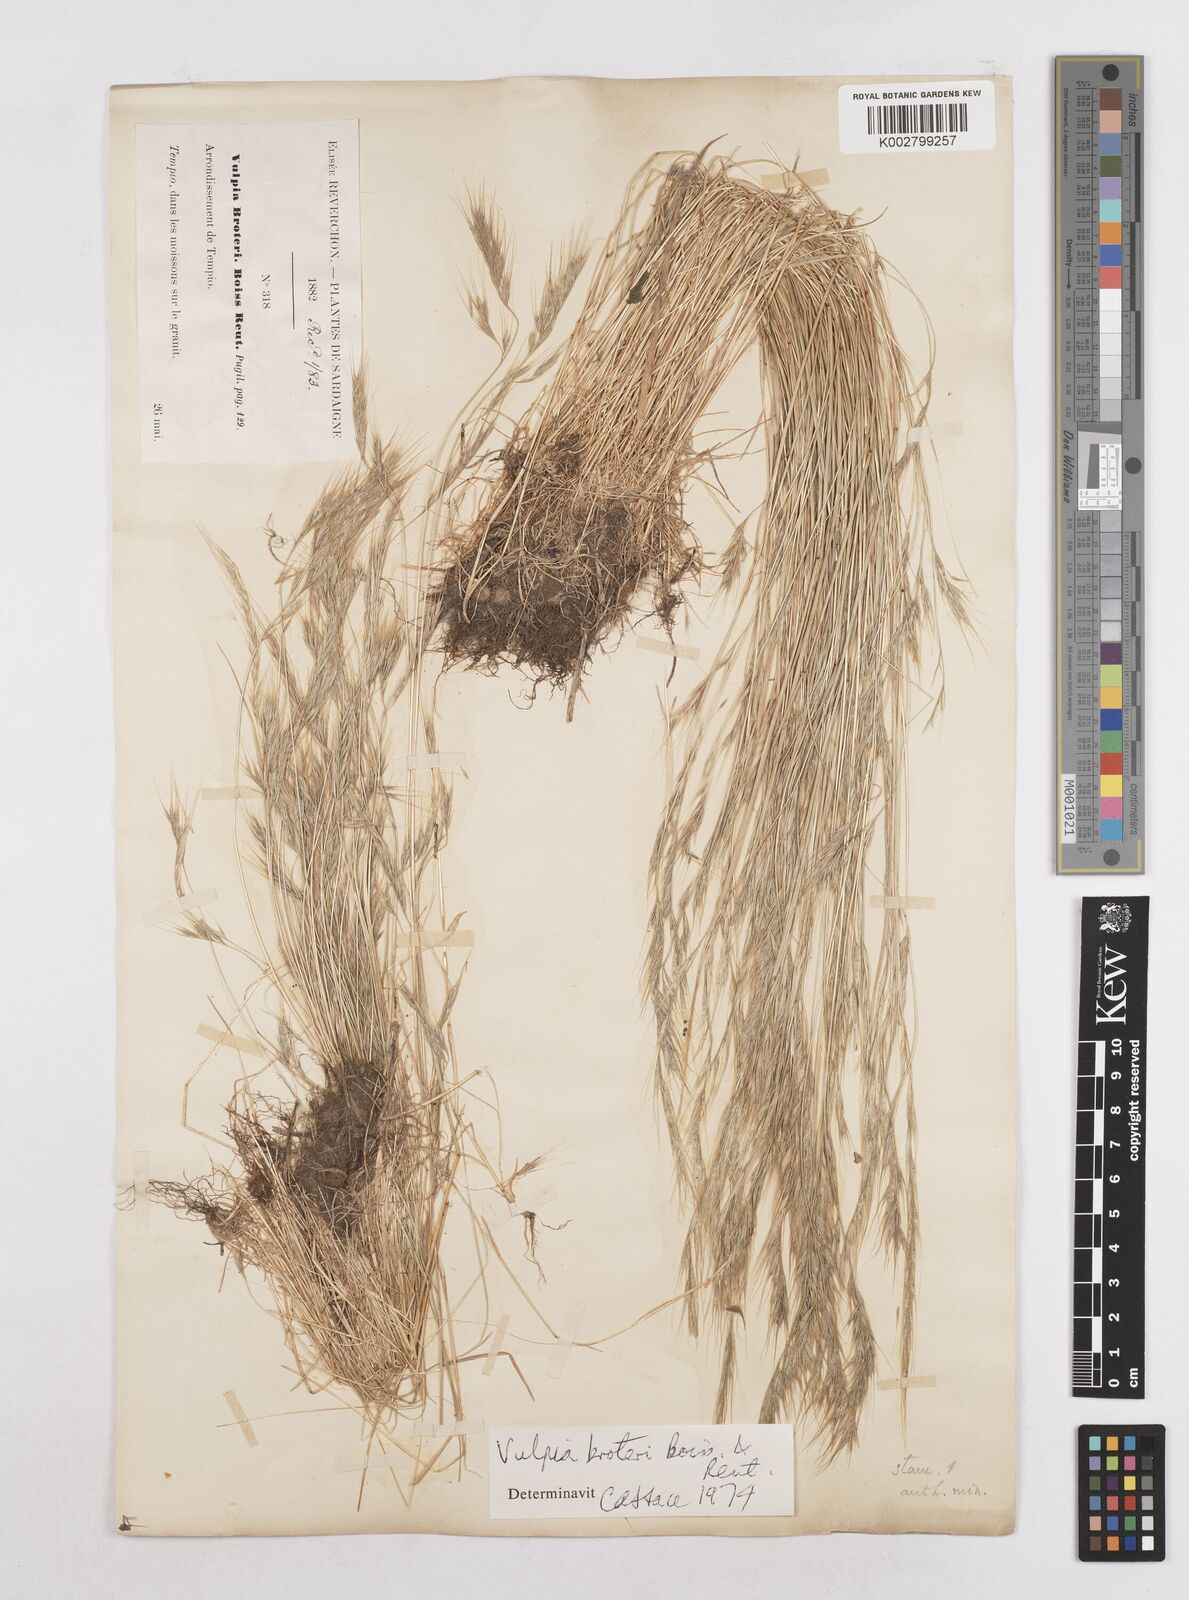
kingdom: Plantae
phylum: Tracheophyta
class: Liliopsida
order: Poales
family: Poaceae
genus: Festuca
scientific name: Festuca muralis
